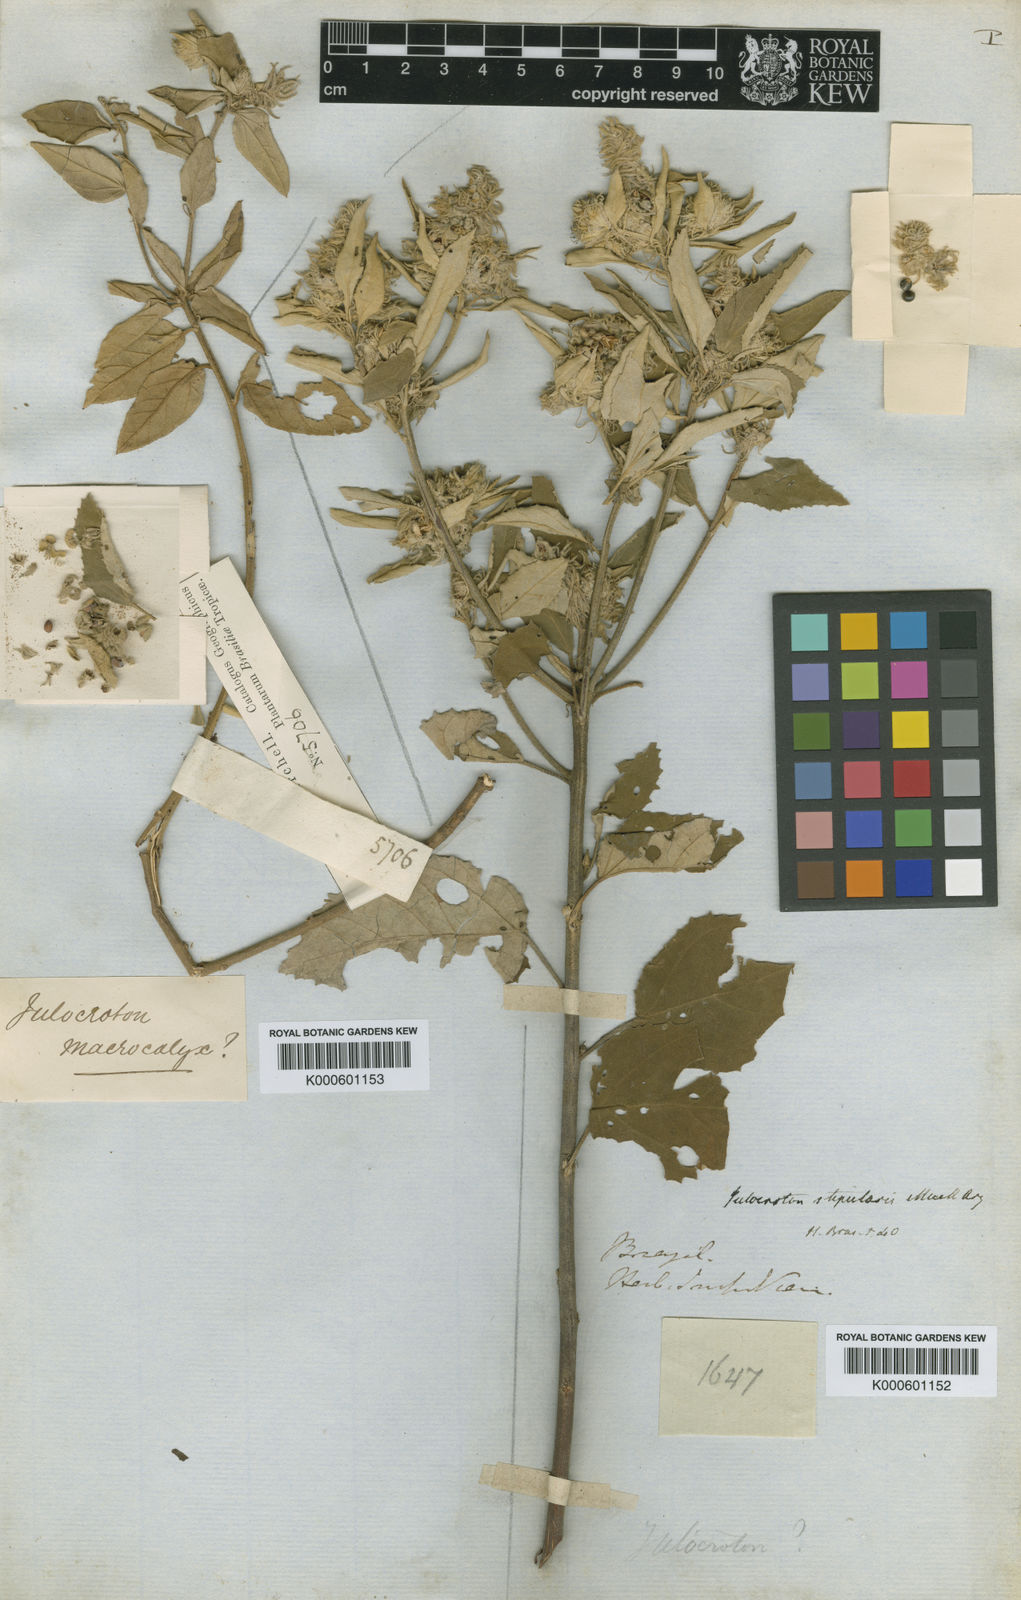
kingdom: Plantae
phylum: Tracheophyta
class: Magnoliopsida
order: Malpighiales
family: Euphorbiaceae
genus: Croton
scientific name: Croton
